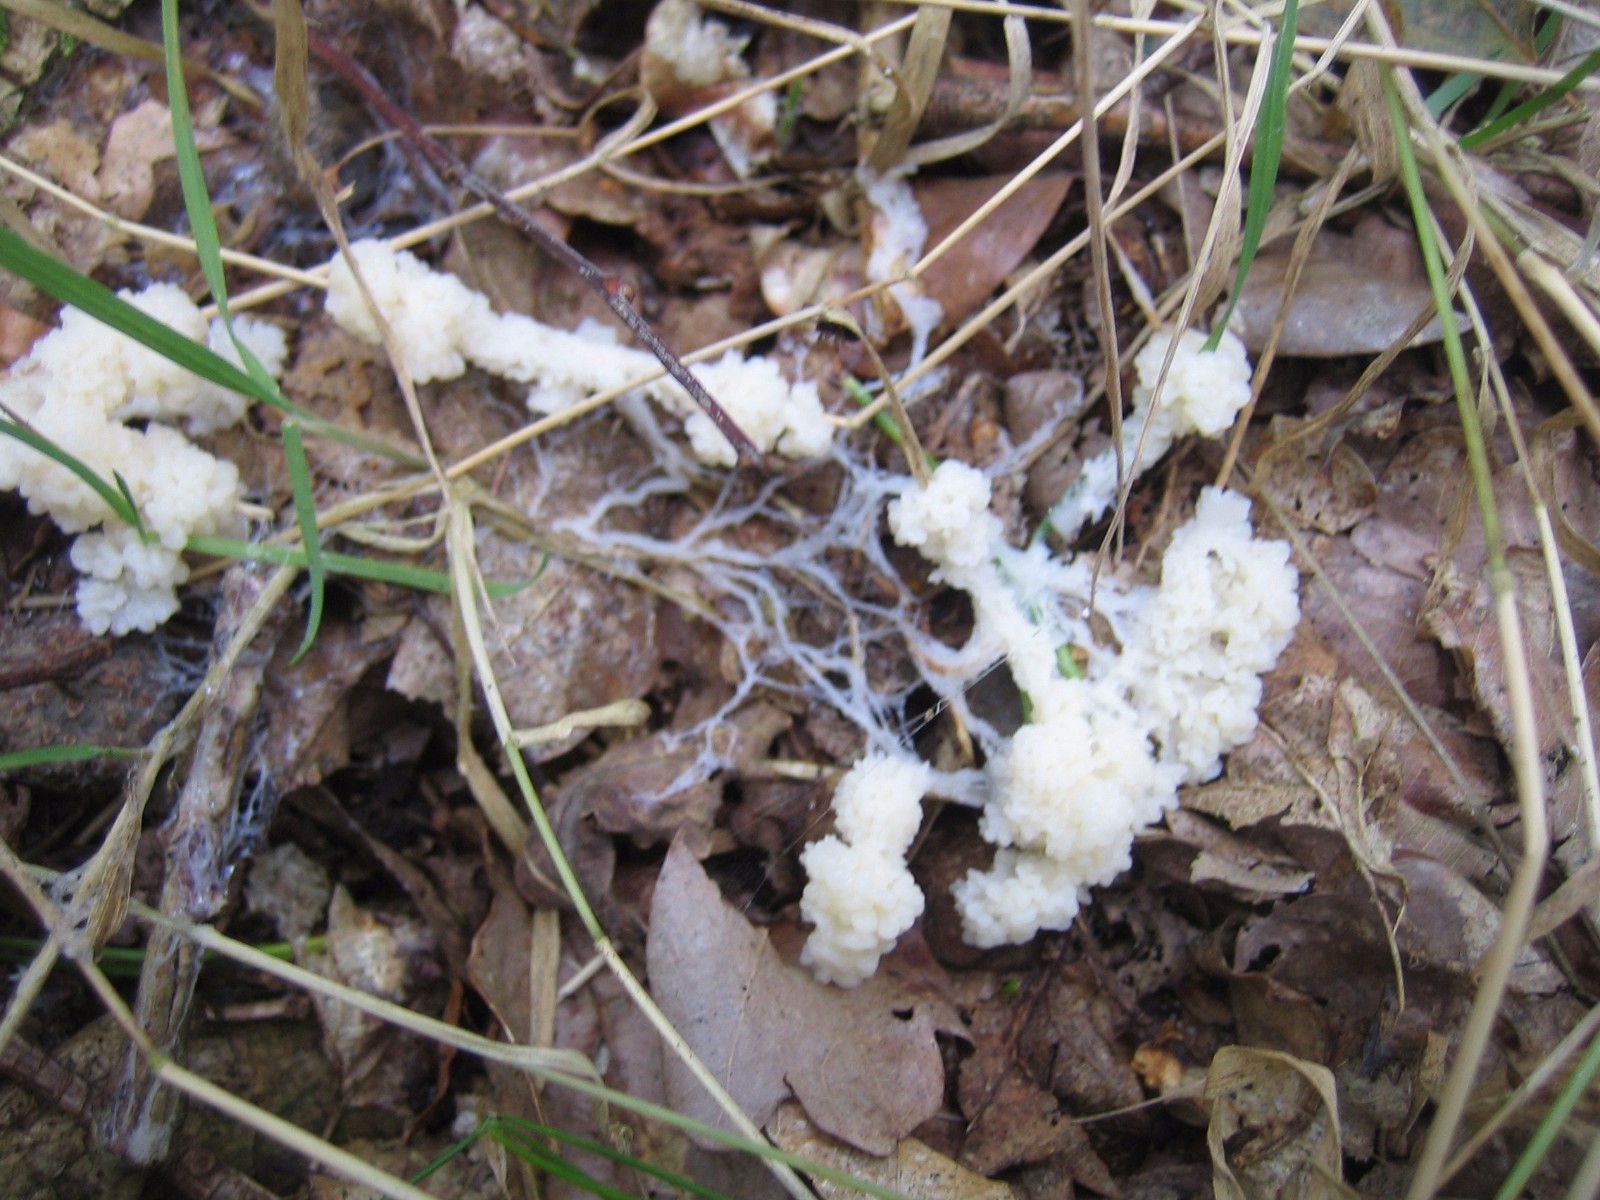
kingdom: Protozoa
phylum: Mycetozoa
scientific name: Mycetozoa
